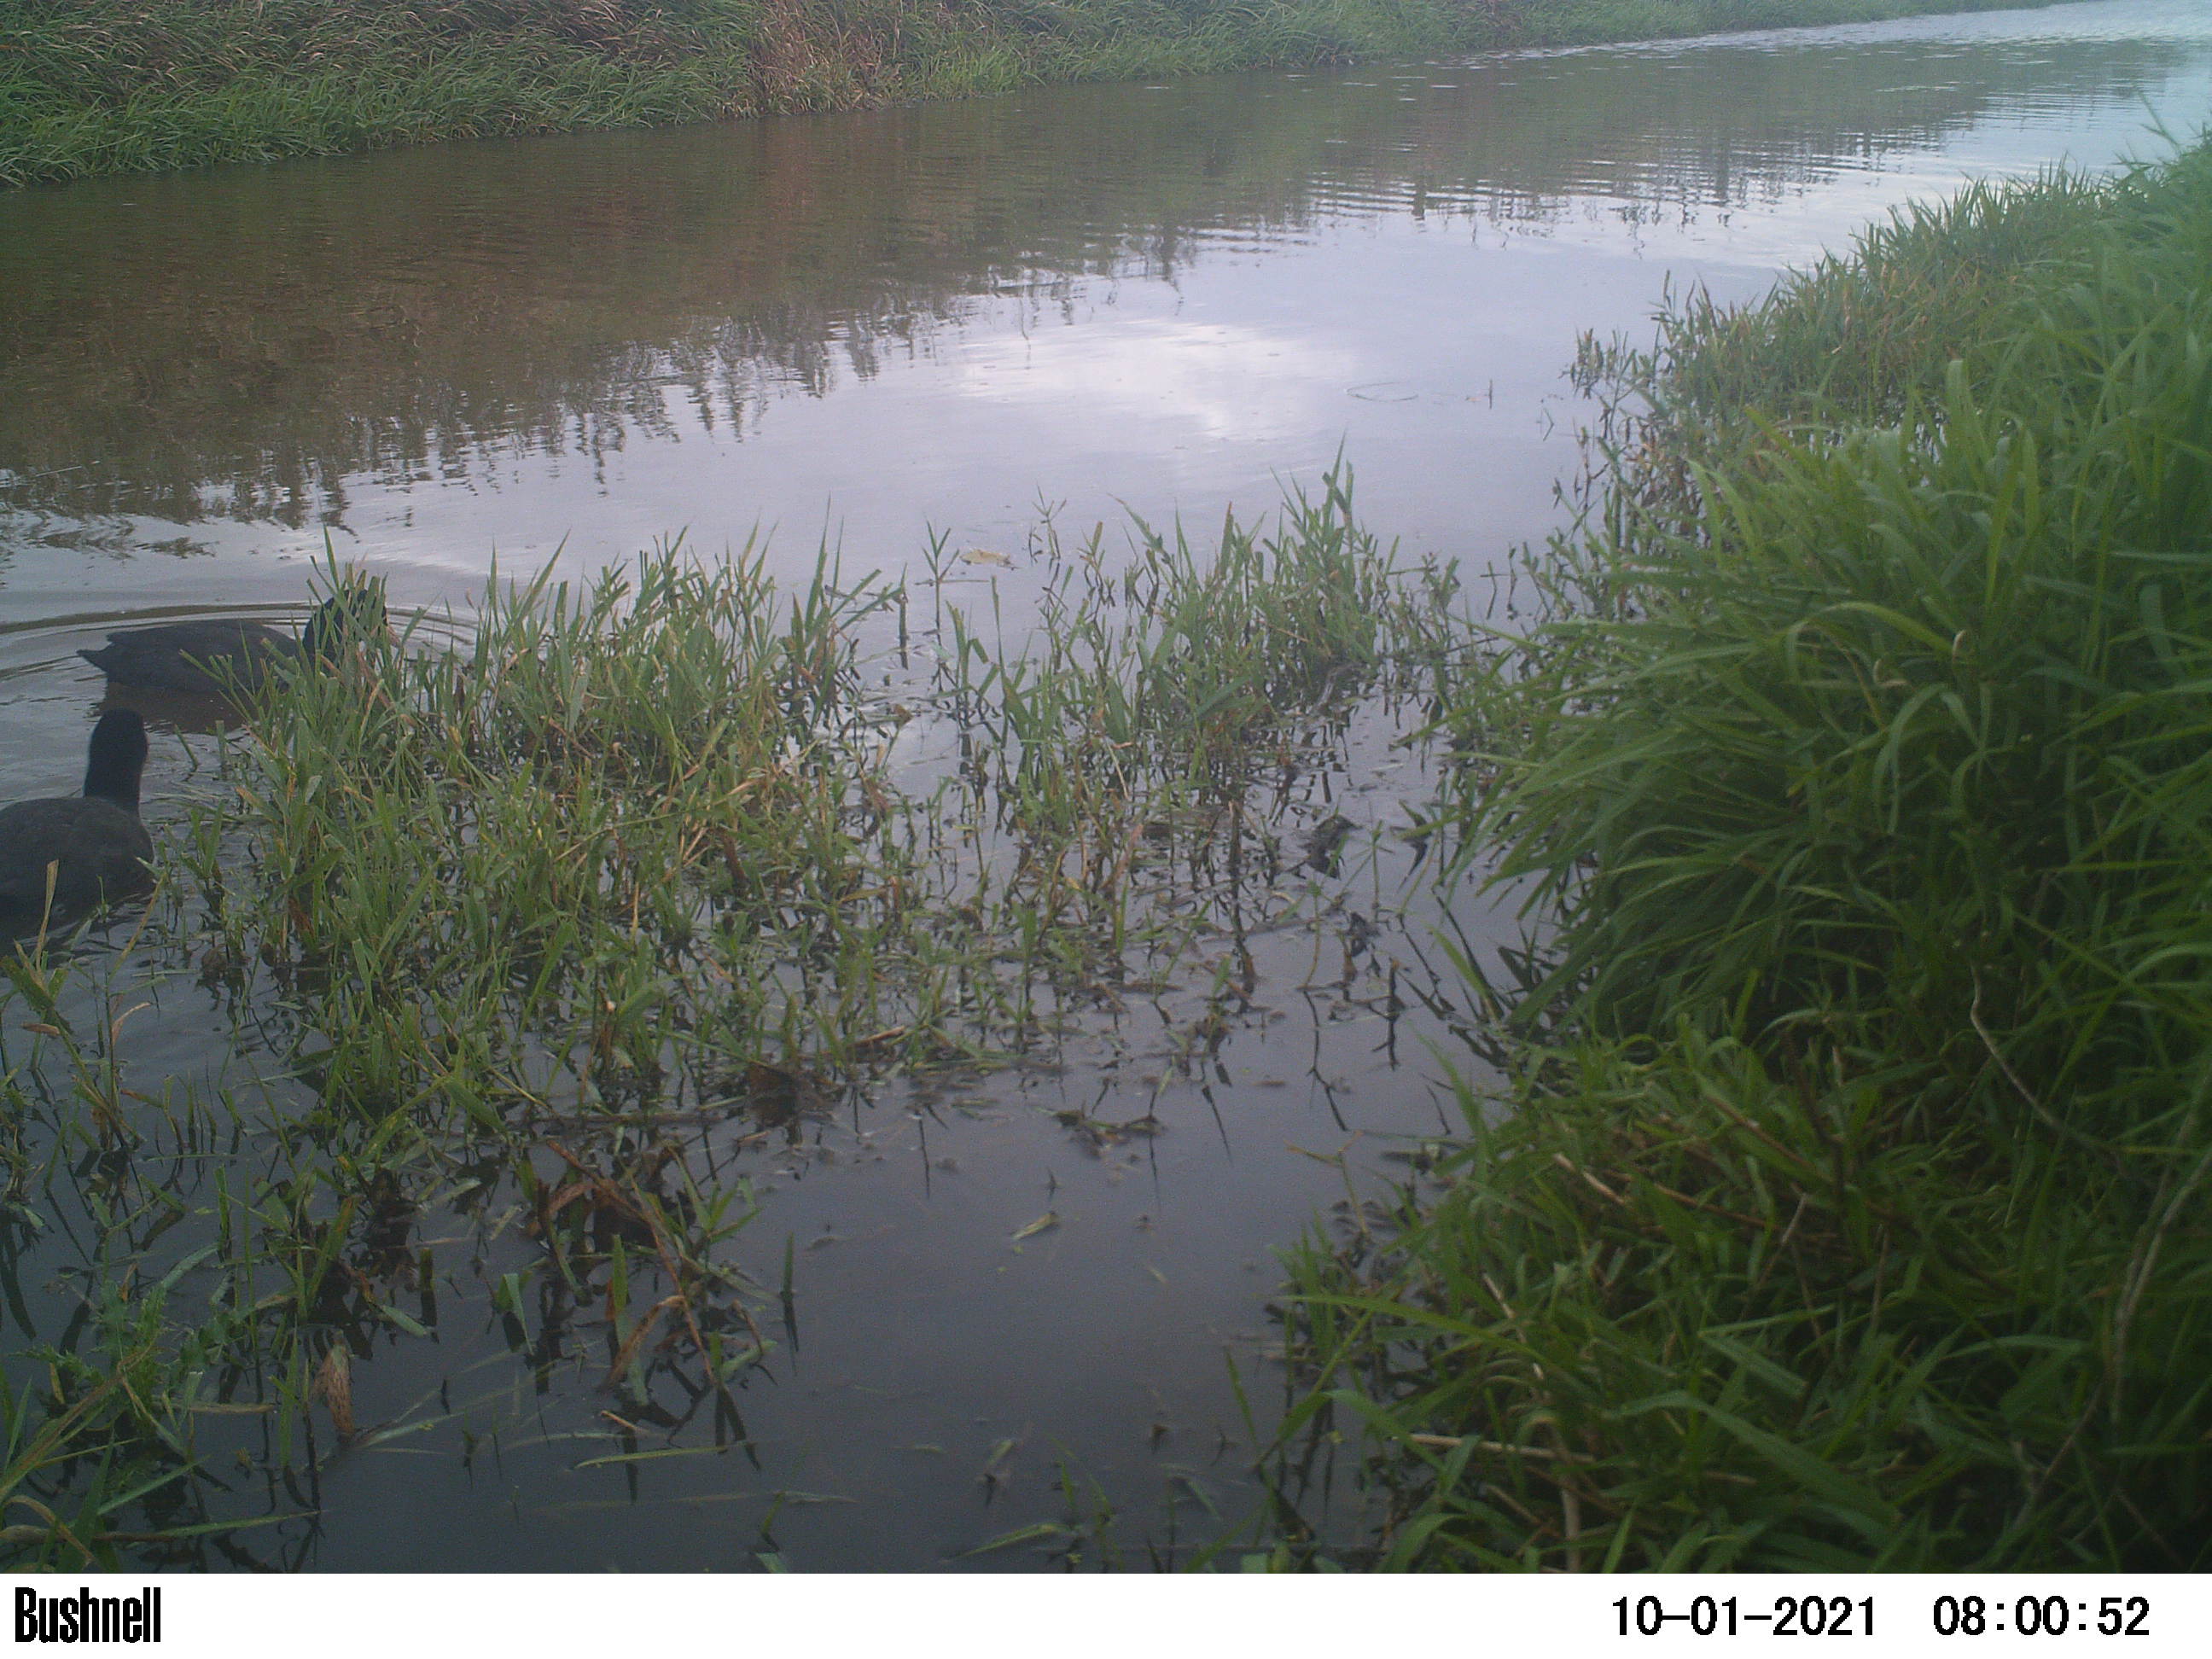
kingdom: Animalia
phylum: Chordata
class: Aves
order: Gruiformes
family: Rallidae
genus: Fulica
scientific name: Fulica atra
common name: Eurasian coot
